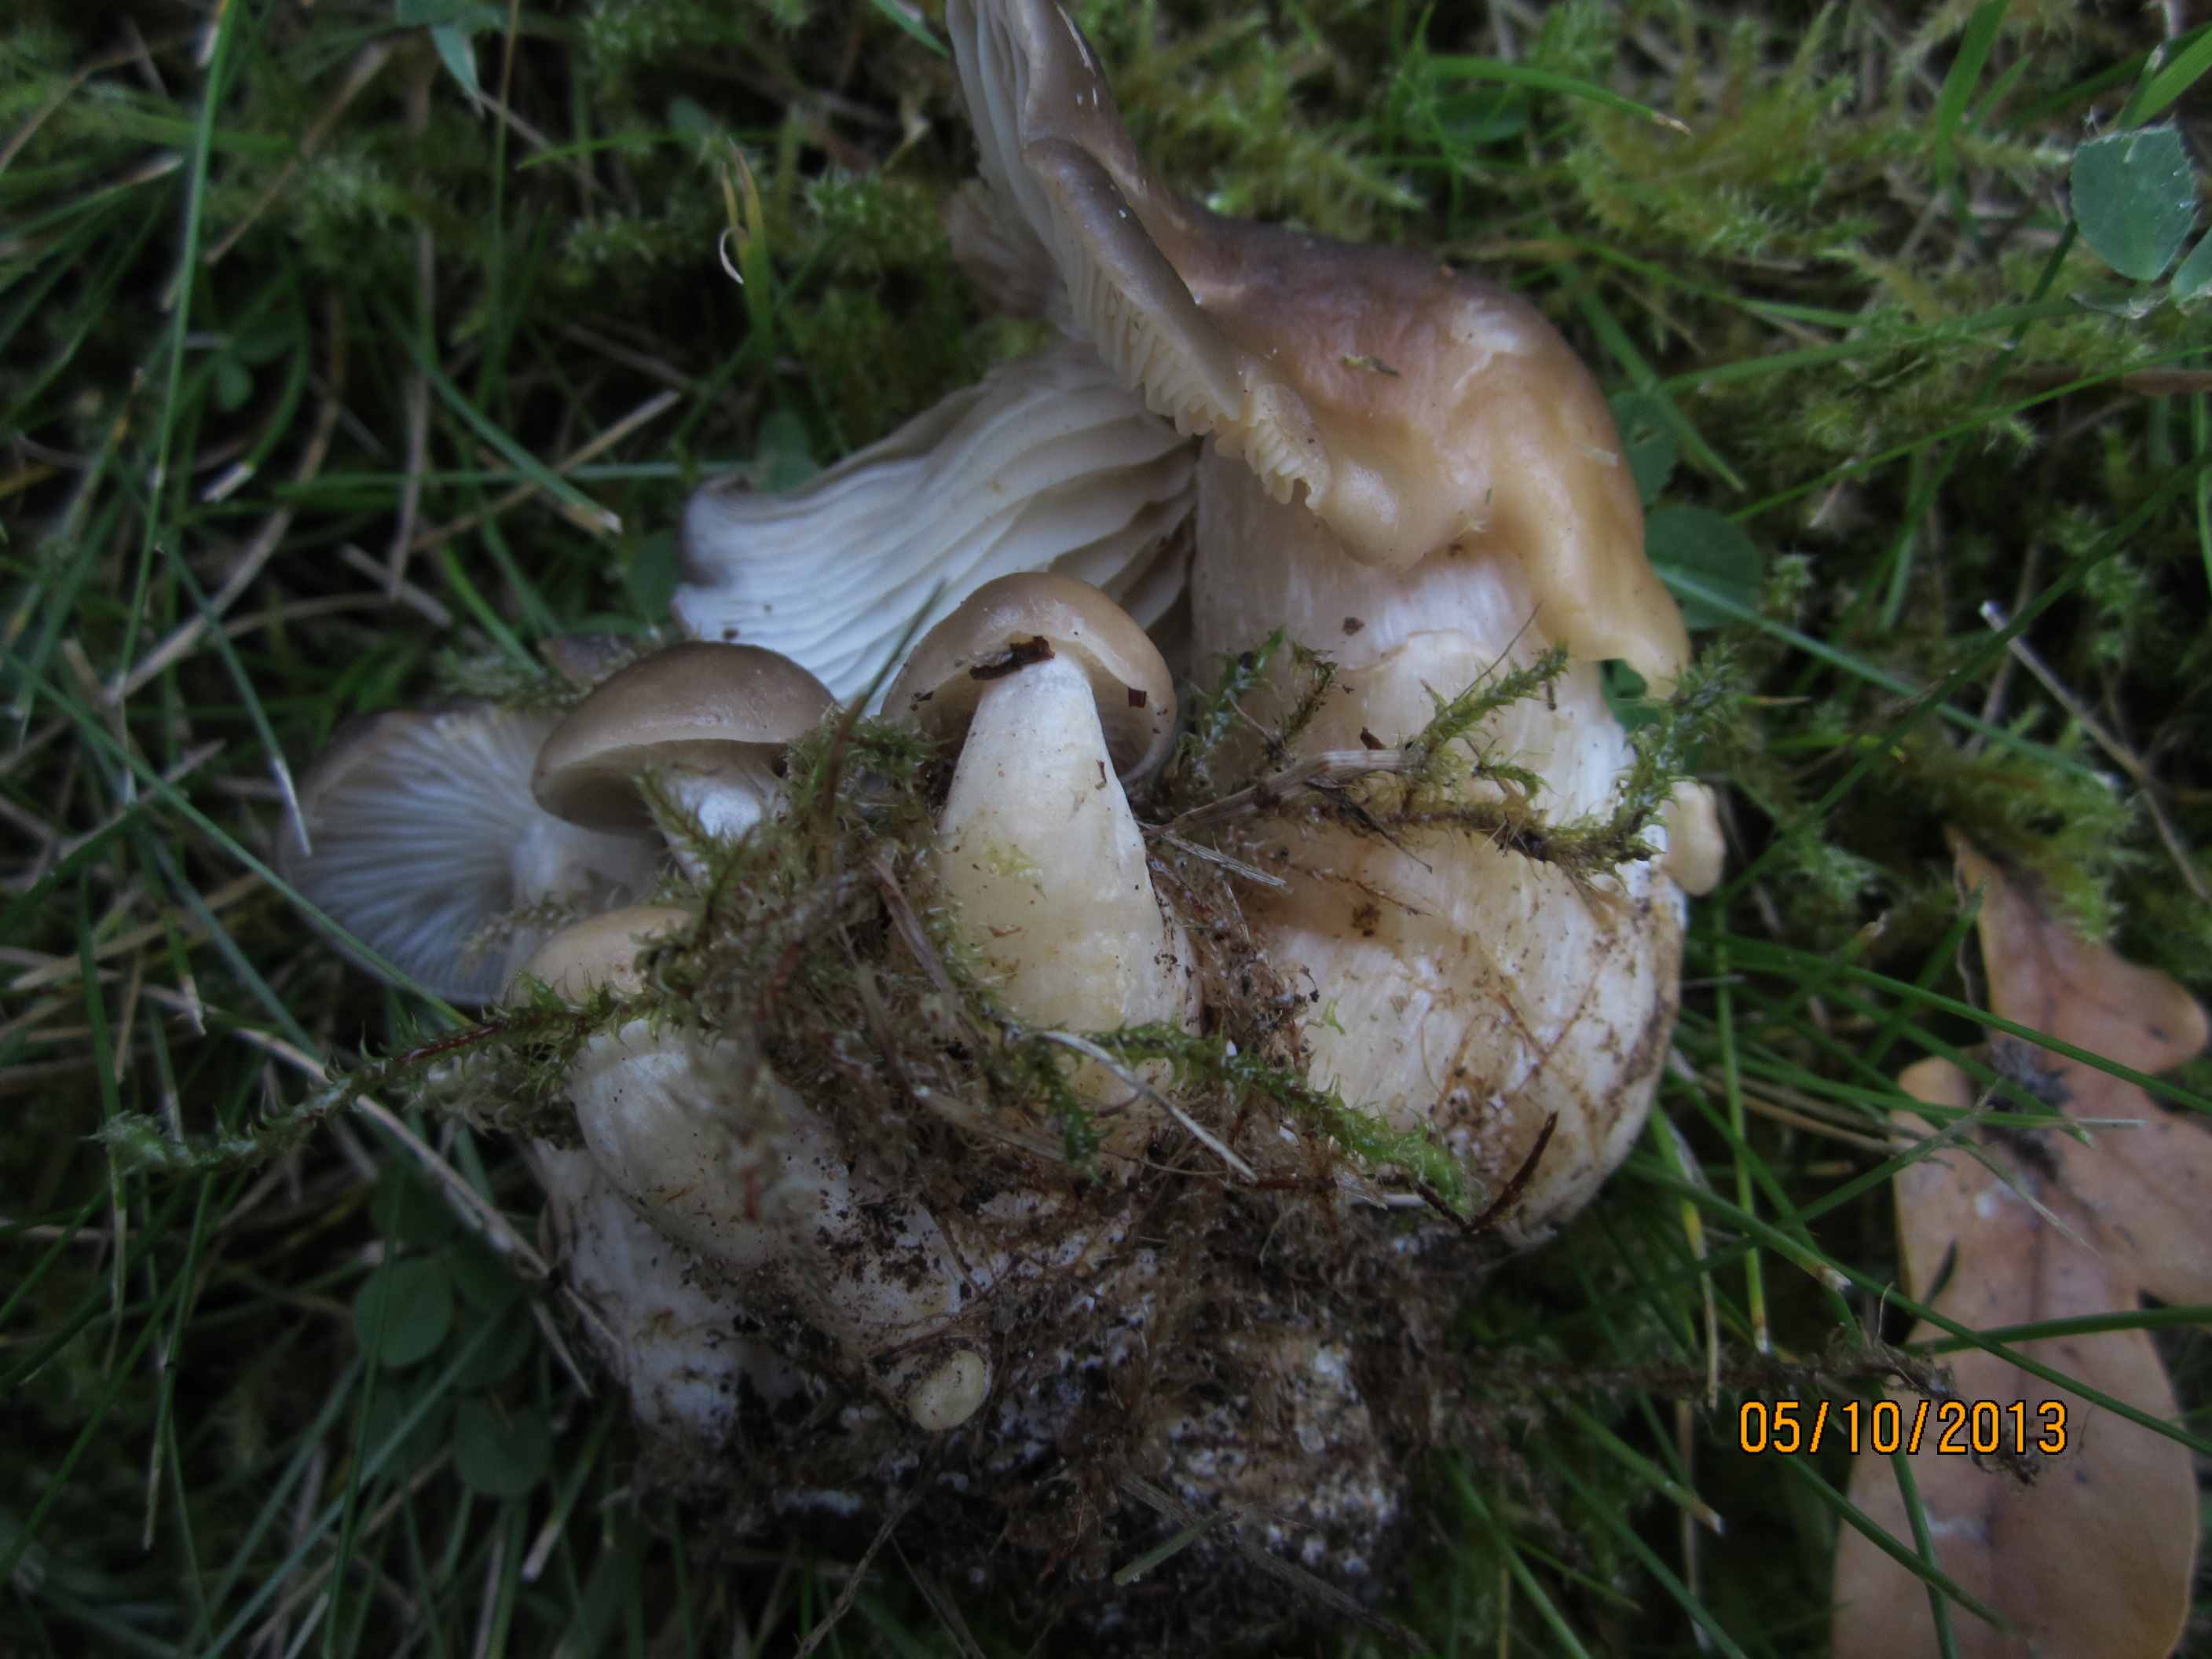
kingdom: Fungi
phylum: Basidiomycota
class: Agaricomycetes
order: Agaricales
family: Lyophyllaceae
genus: Lyophyllum
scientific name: Lyophyllum decastes
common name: røggrå gråblad
